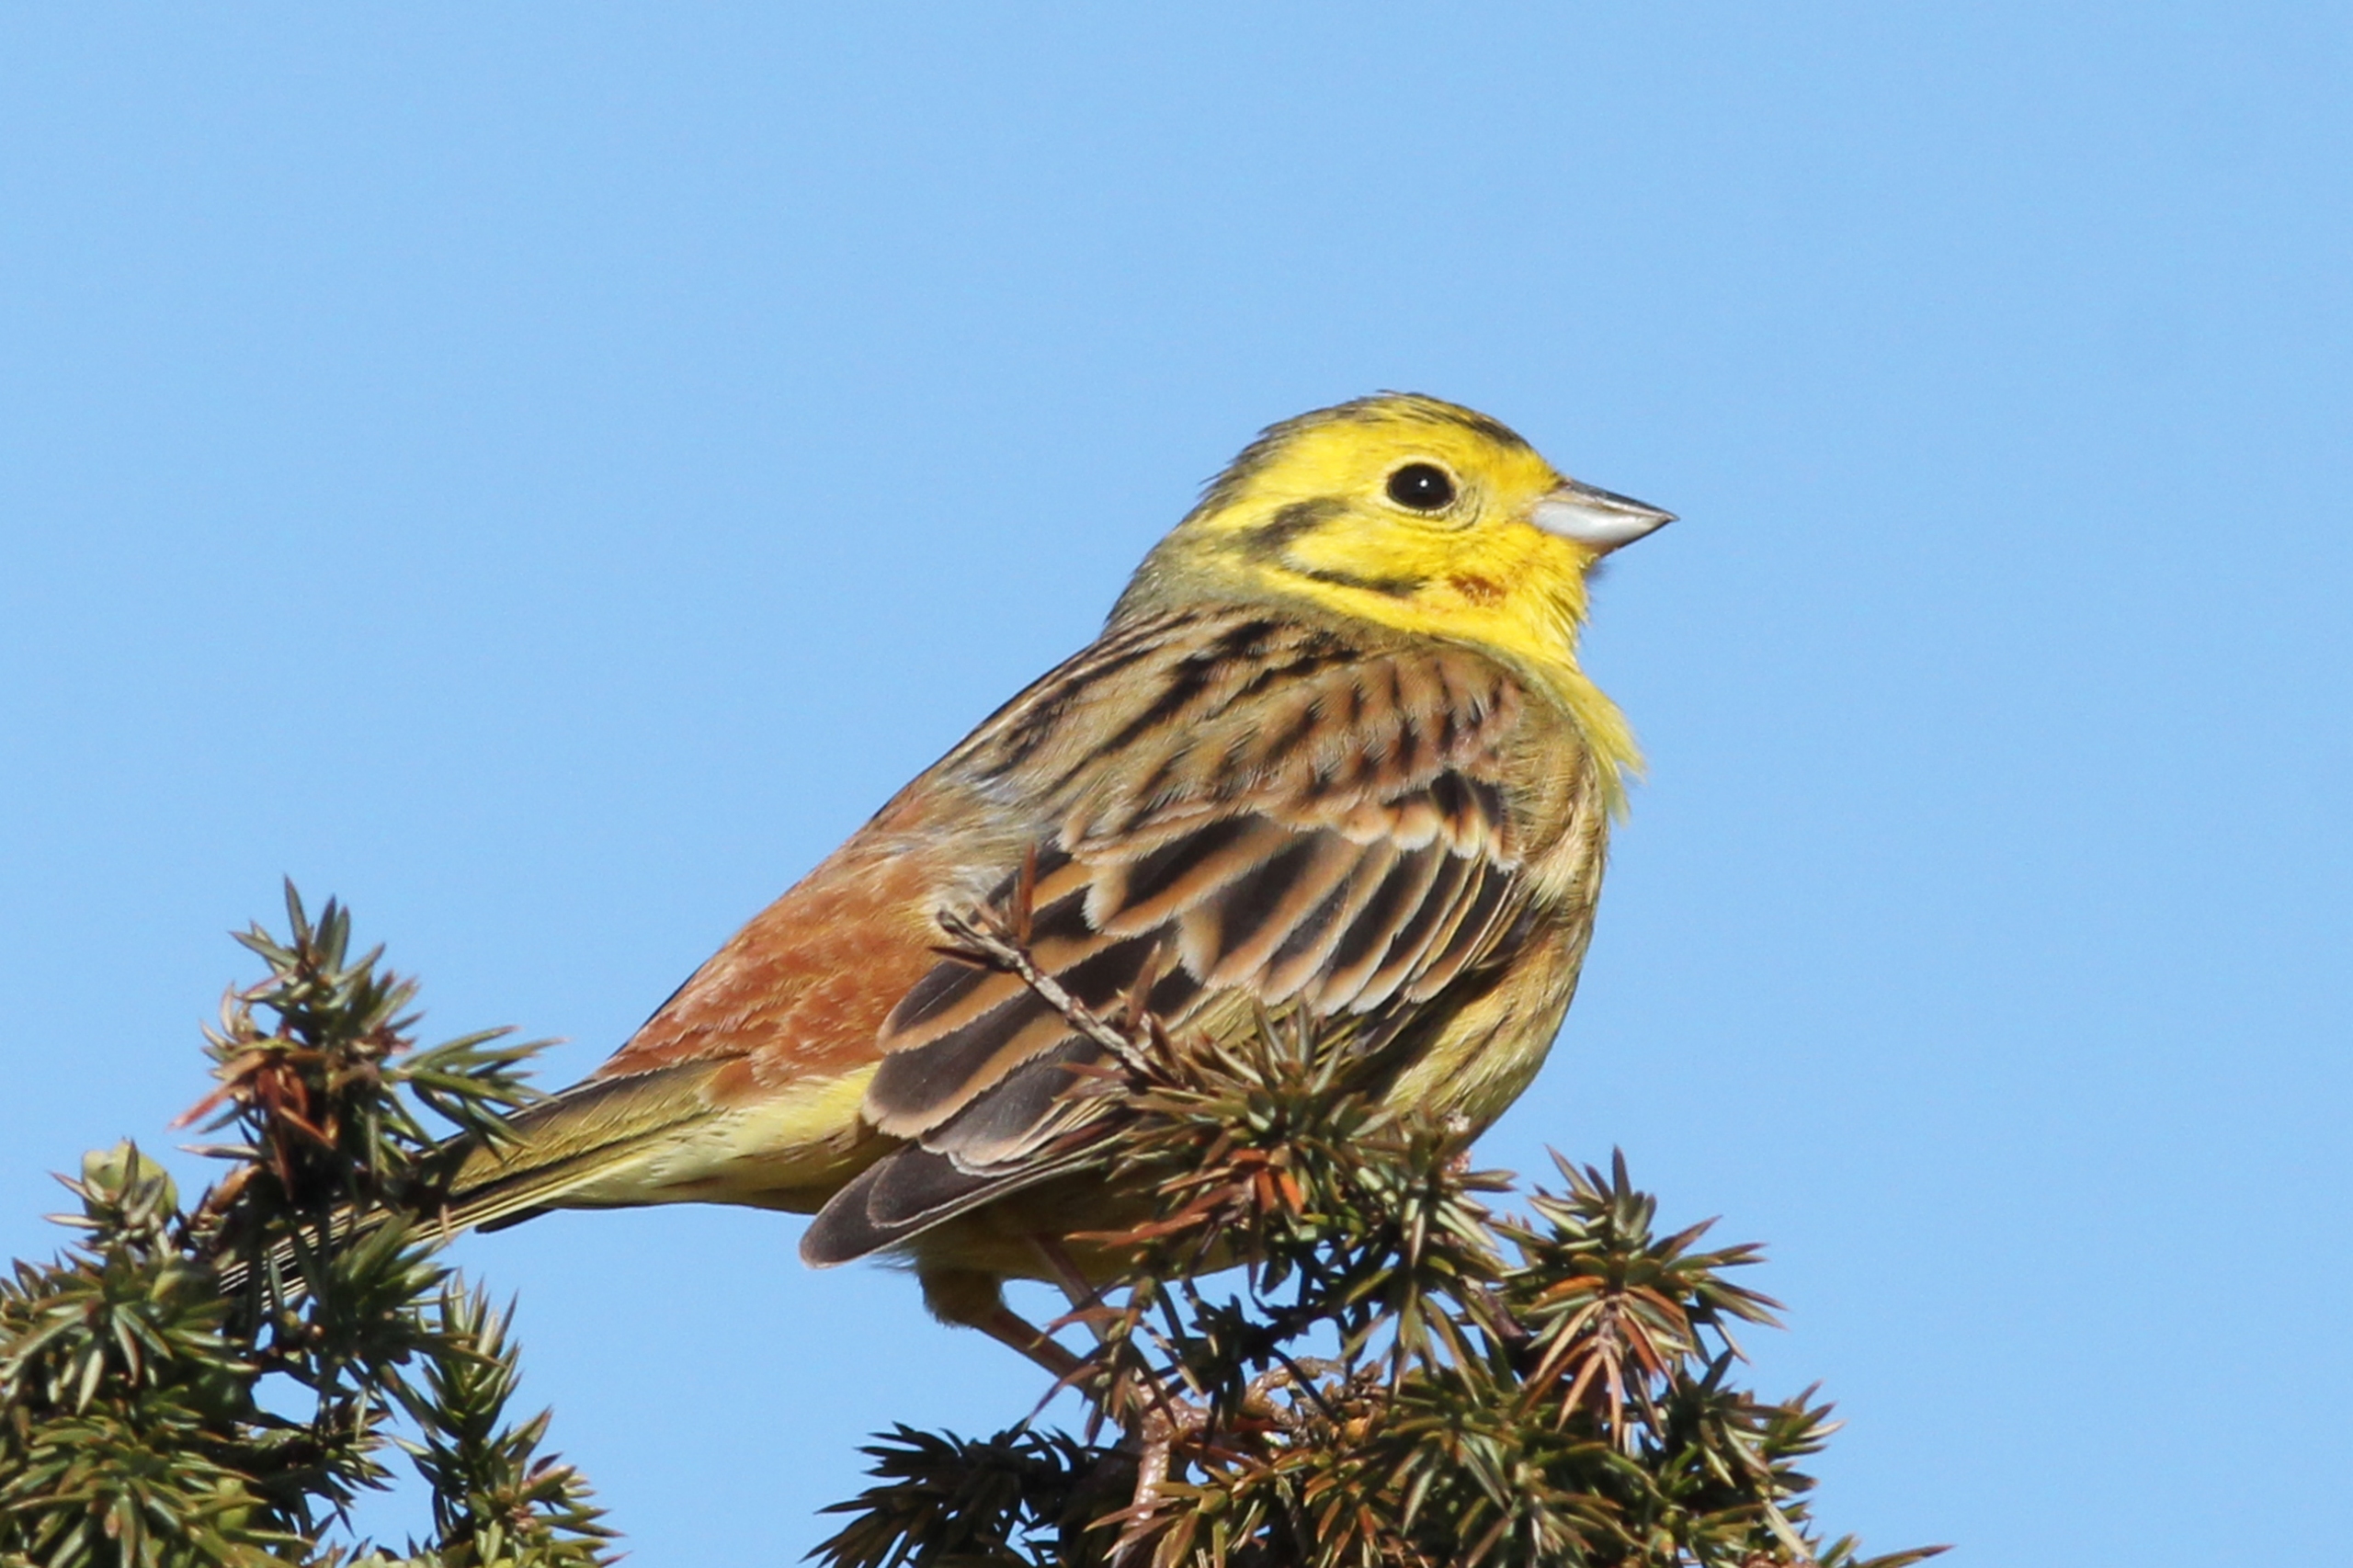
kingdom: Animalia
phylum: Chordata
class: Aves
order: Passeriformes
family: Emberizidae
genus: Emberiza
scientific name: Emberiza citrinella
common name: Gulspurv
